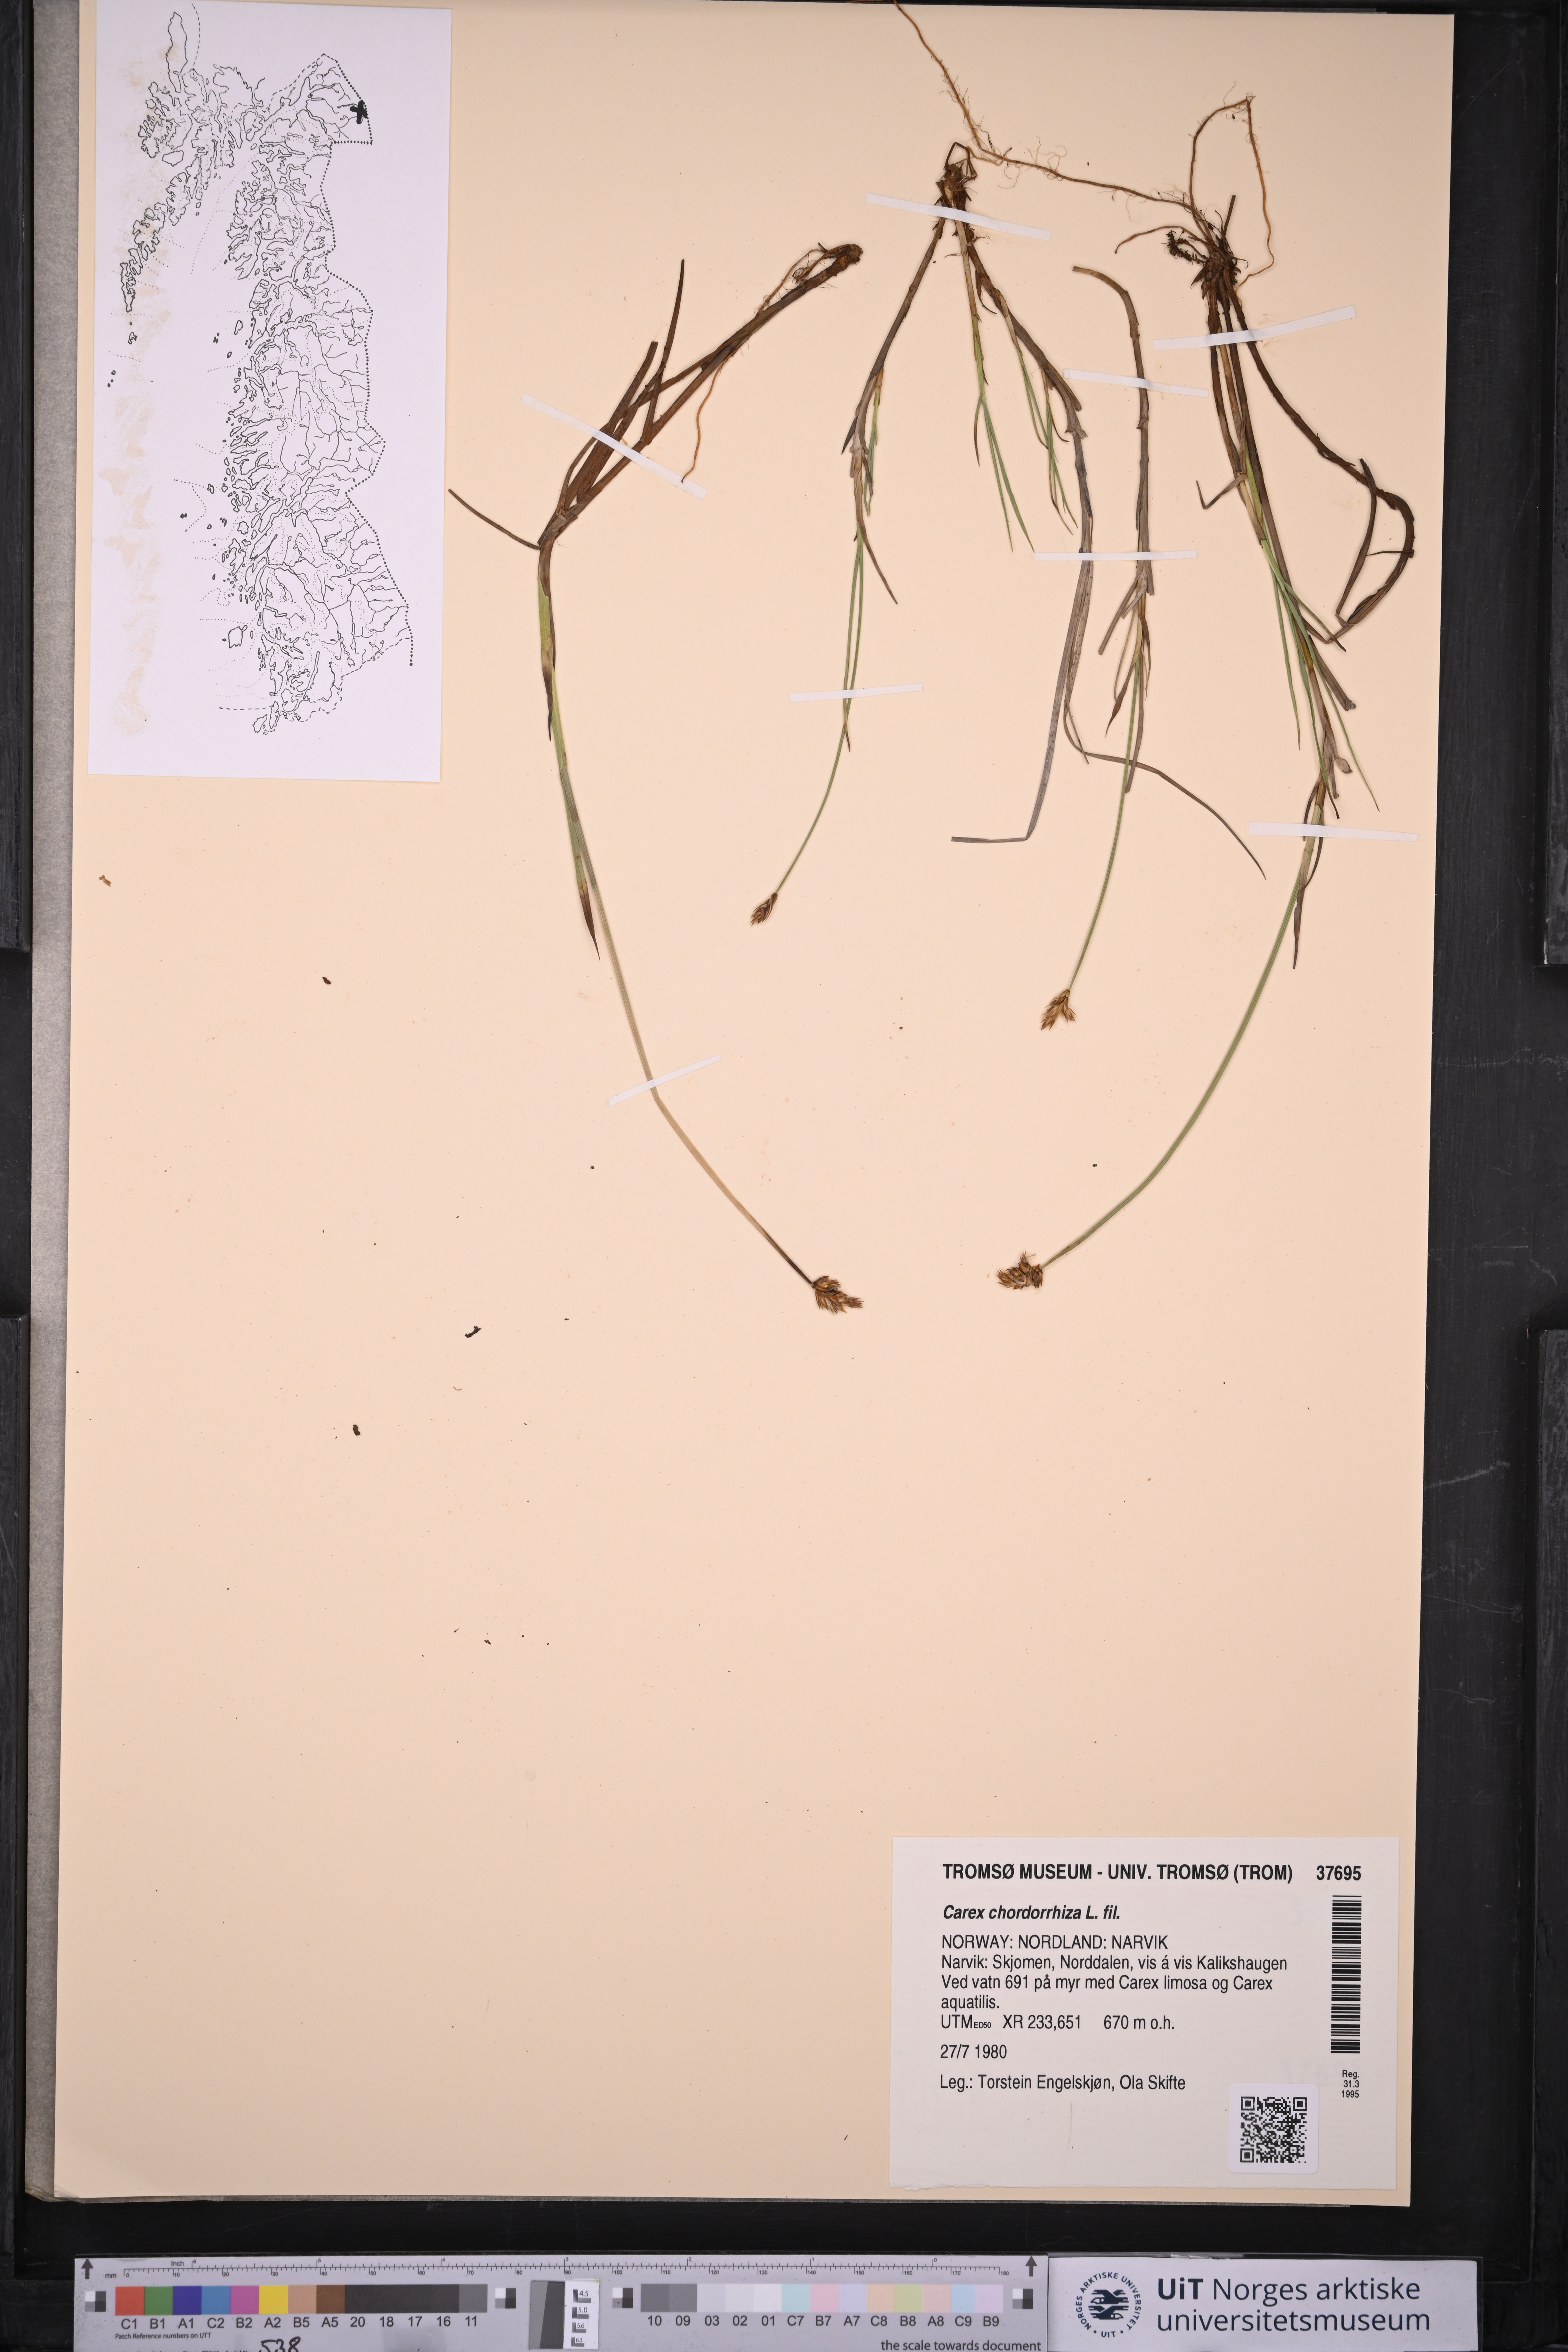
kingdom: Plantae
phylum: Tracheophyta
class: Liliopsida
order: Poales
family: Cyperaceae
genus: Carex
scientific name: Carex chordorrhiza
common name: String sedge
